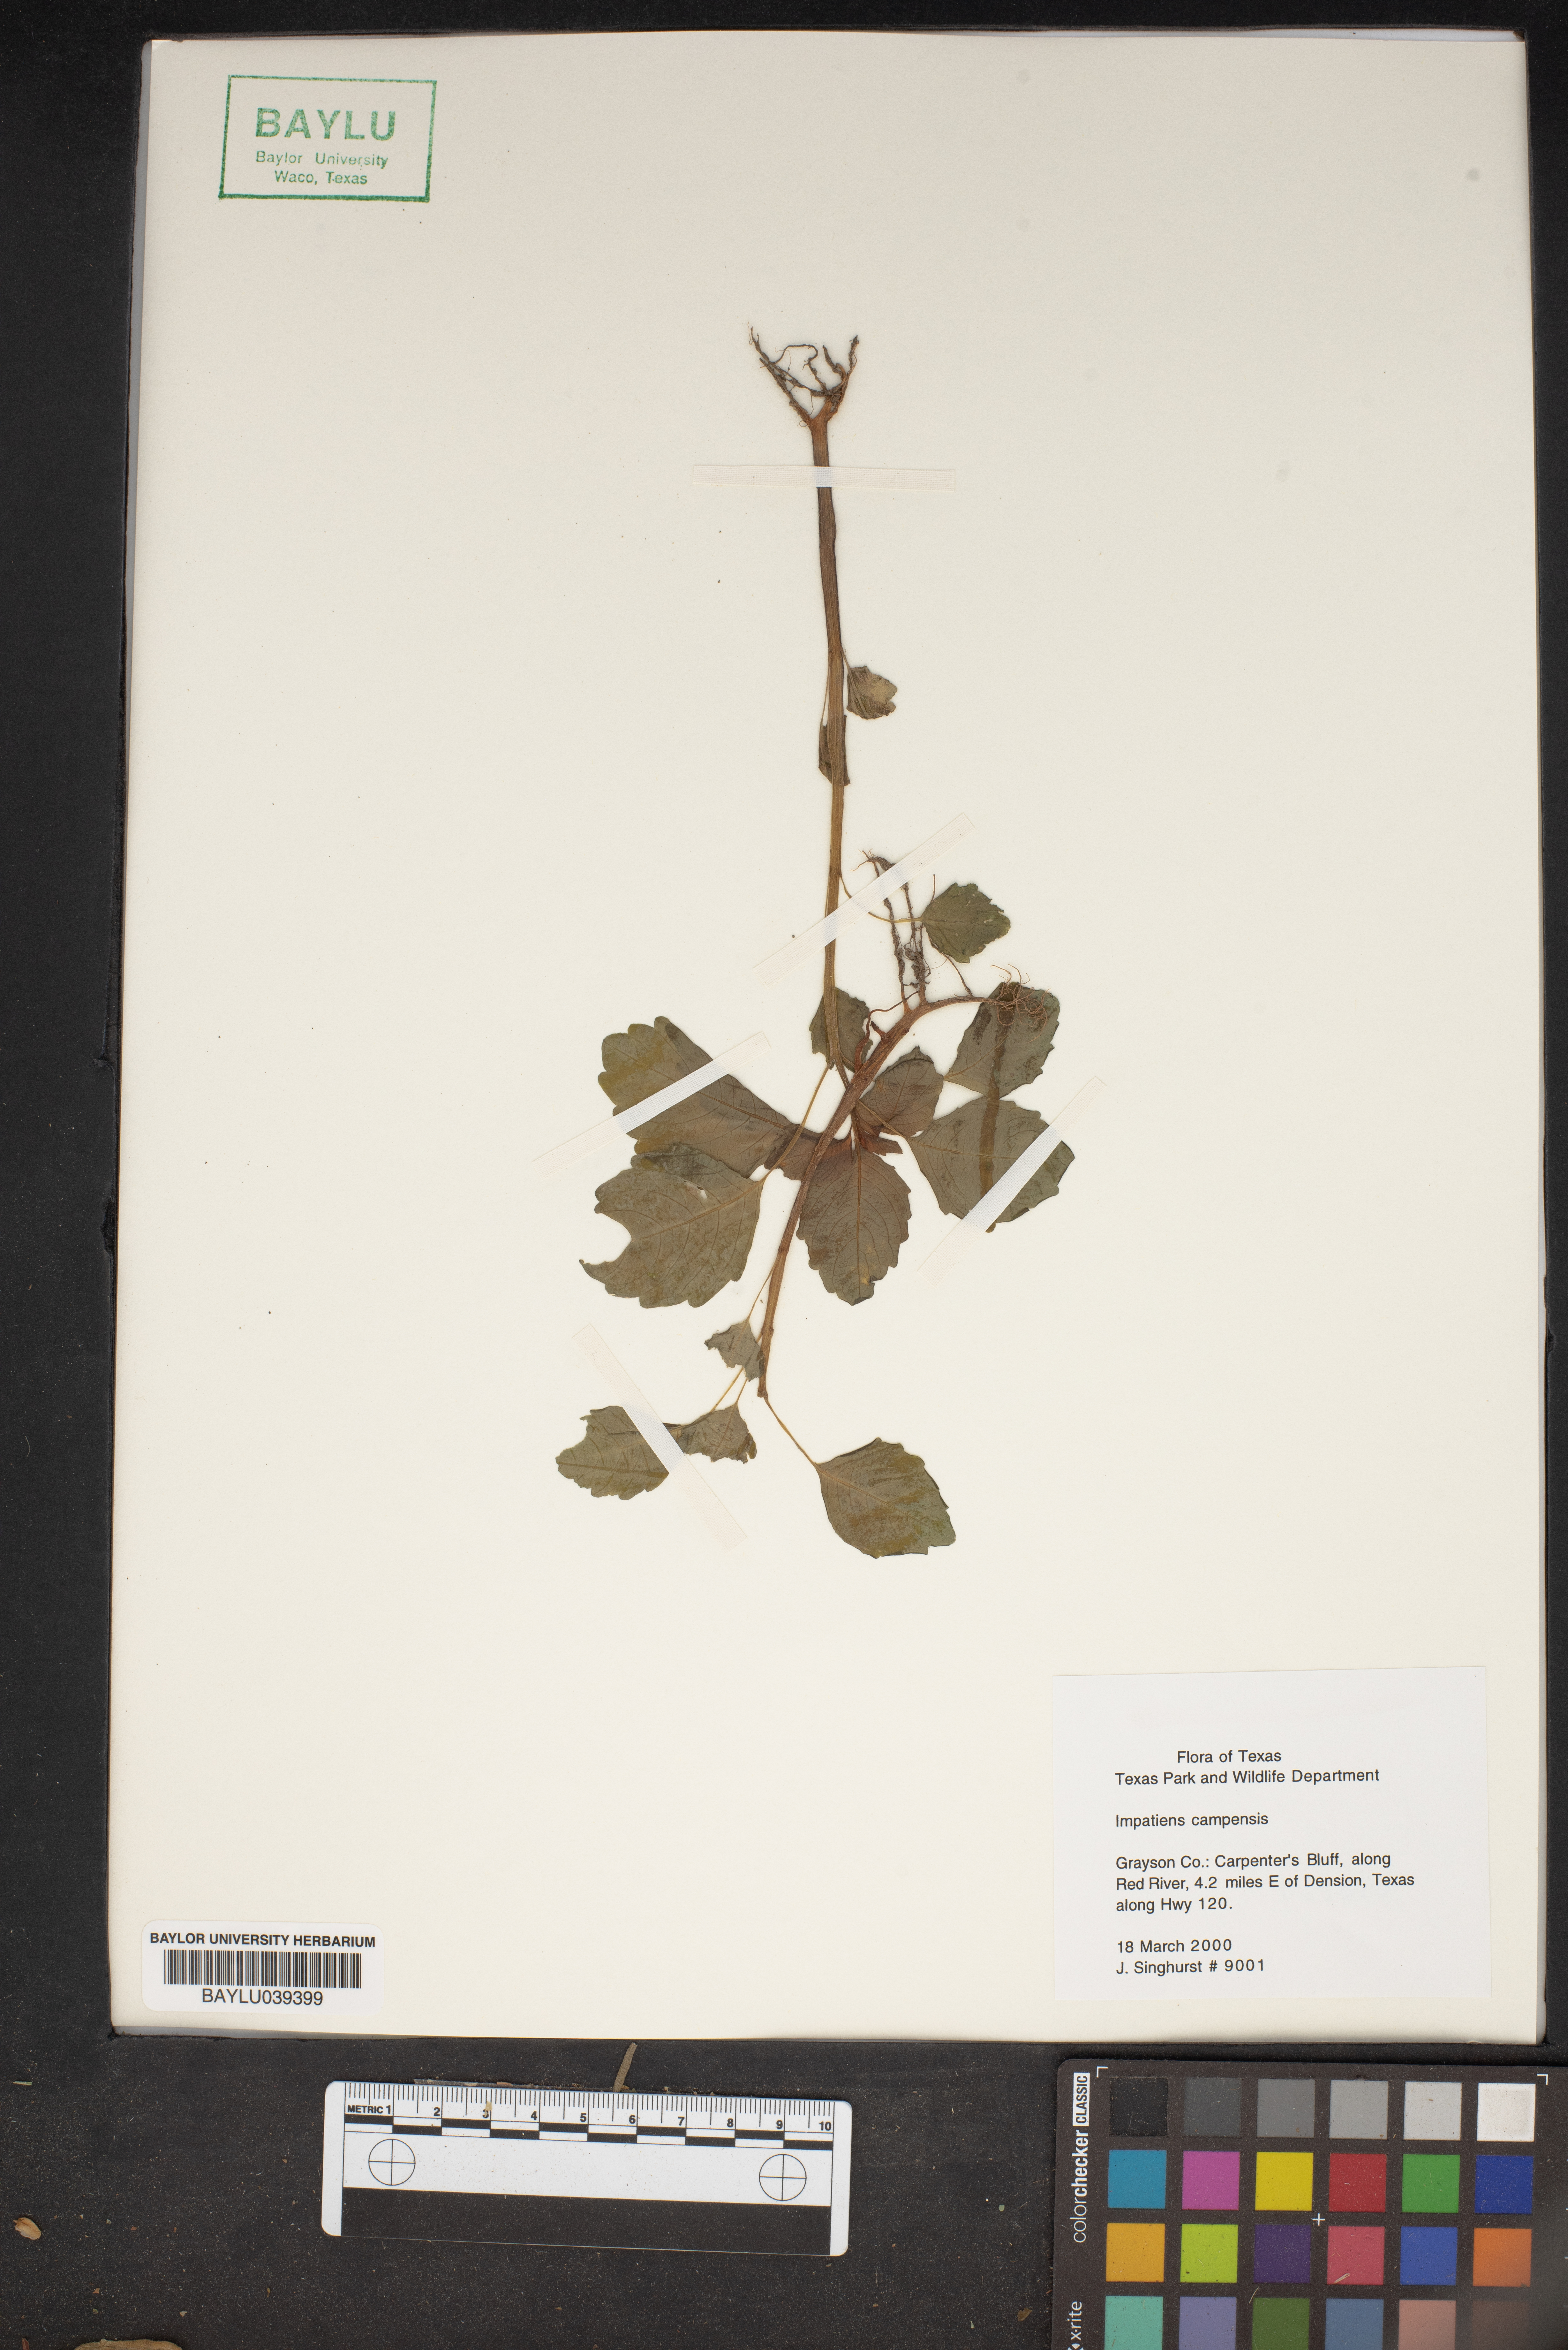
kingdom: Plantae
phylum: Tracheophyta
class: Magnoliopsida
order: Ericales
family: Balsaminaceae
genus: Impatiens
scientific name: Impatiens
